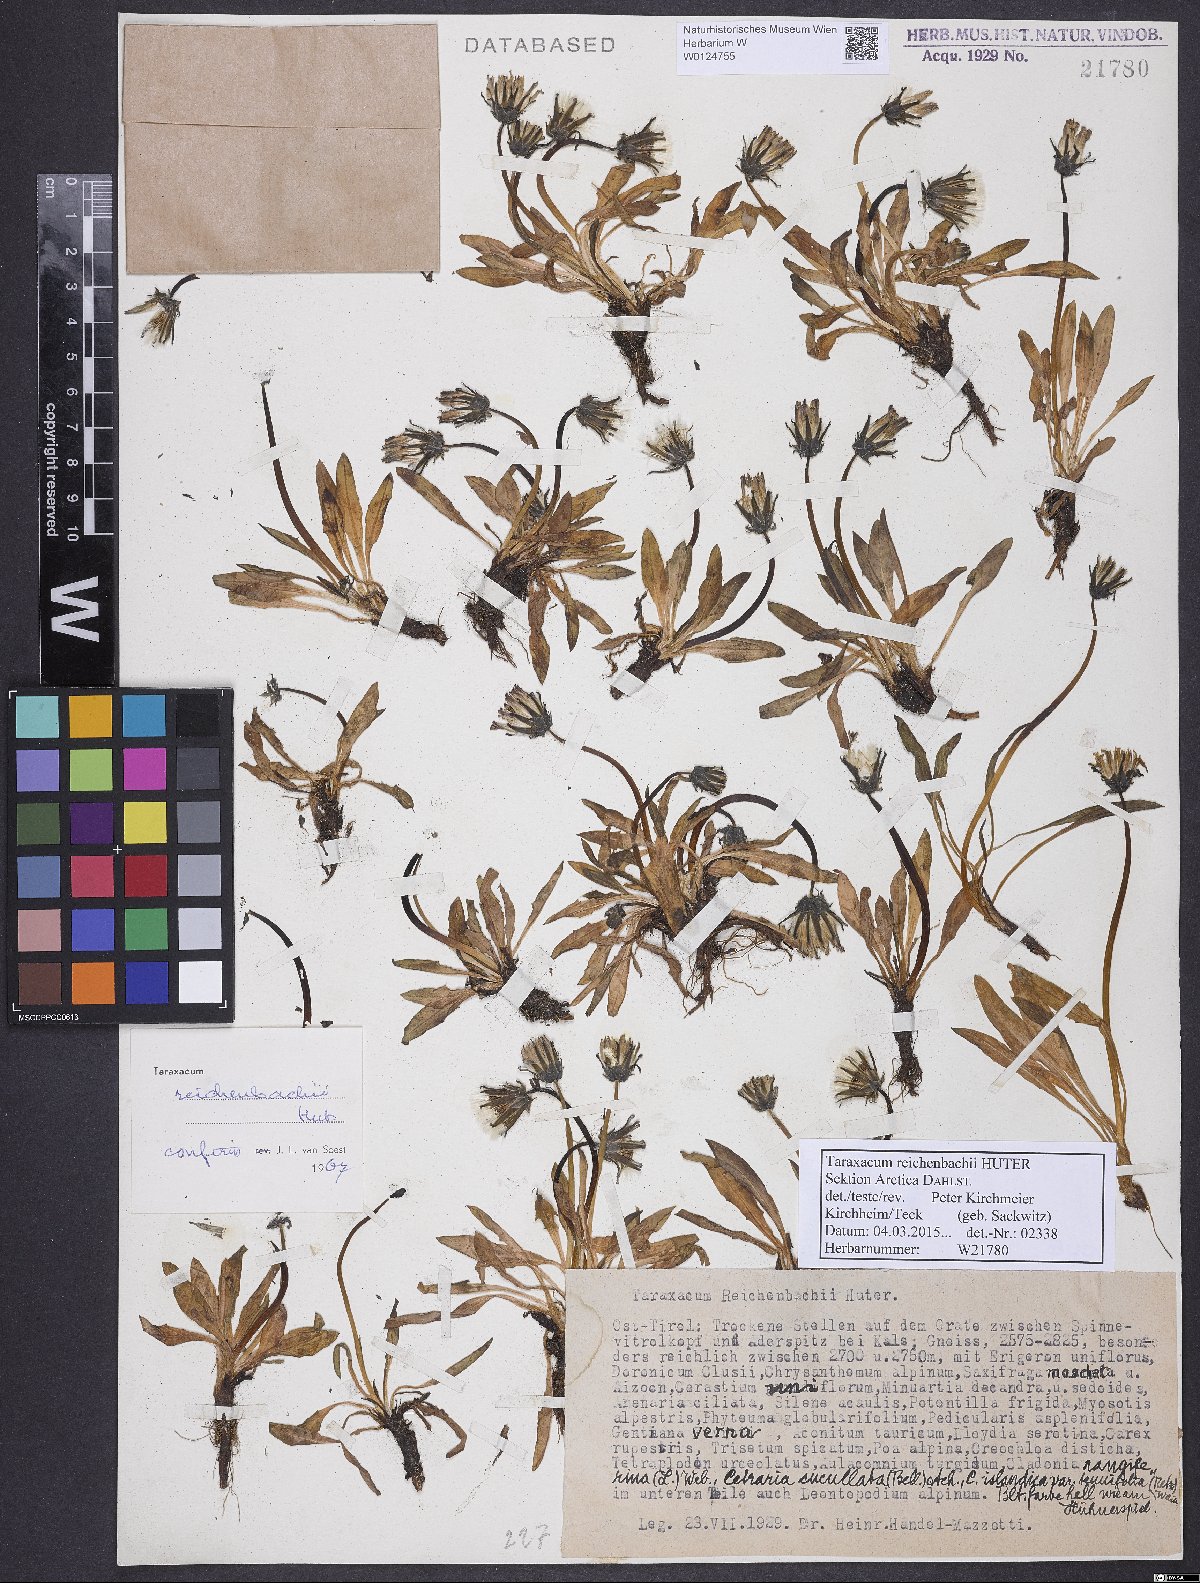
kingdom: Plantae
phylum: Tracheophyta
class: Magnoliopsida
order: Asterales
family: Asteraceae
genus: Taraxacum
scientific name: Taraxacum reichenbachii
